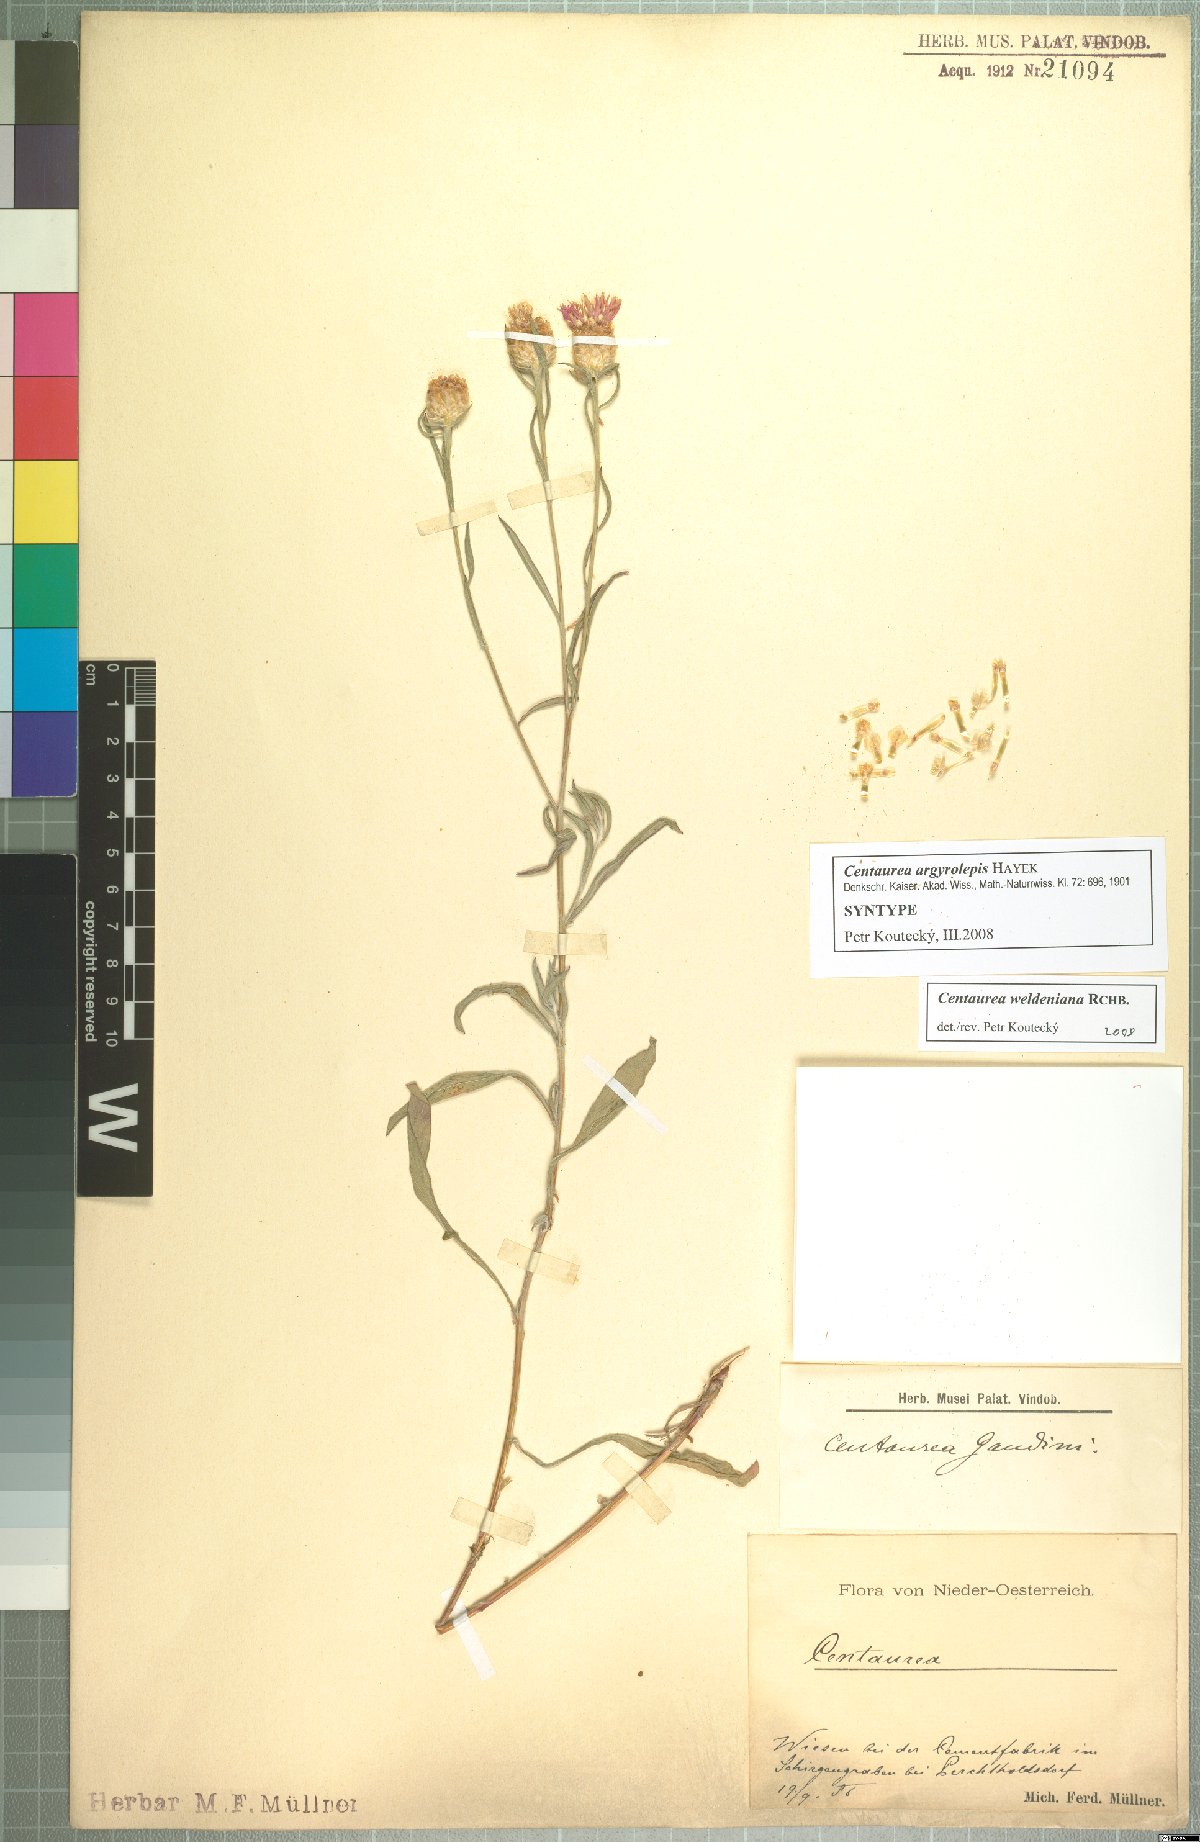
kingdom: Plantae
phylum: Tracheophyta
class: Magnoliopsida
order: Asterales
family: Asteraceae
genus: Centaurea
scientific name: Centaurea jacea
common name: Brown knapweed
